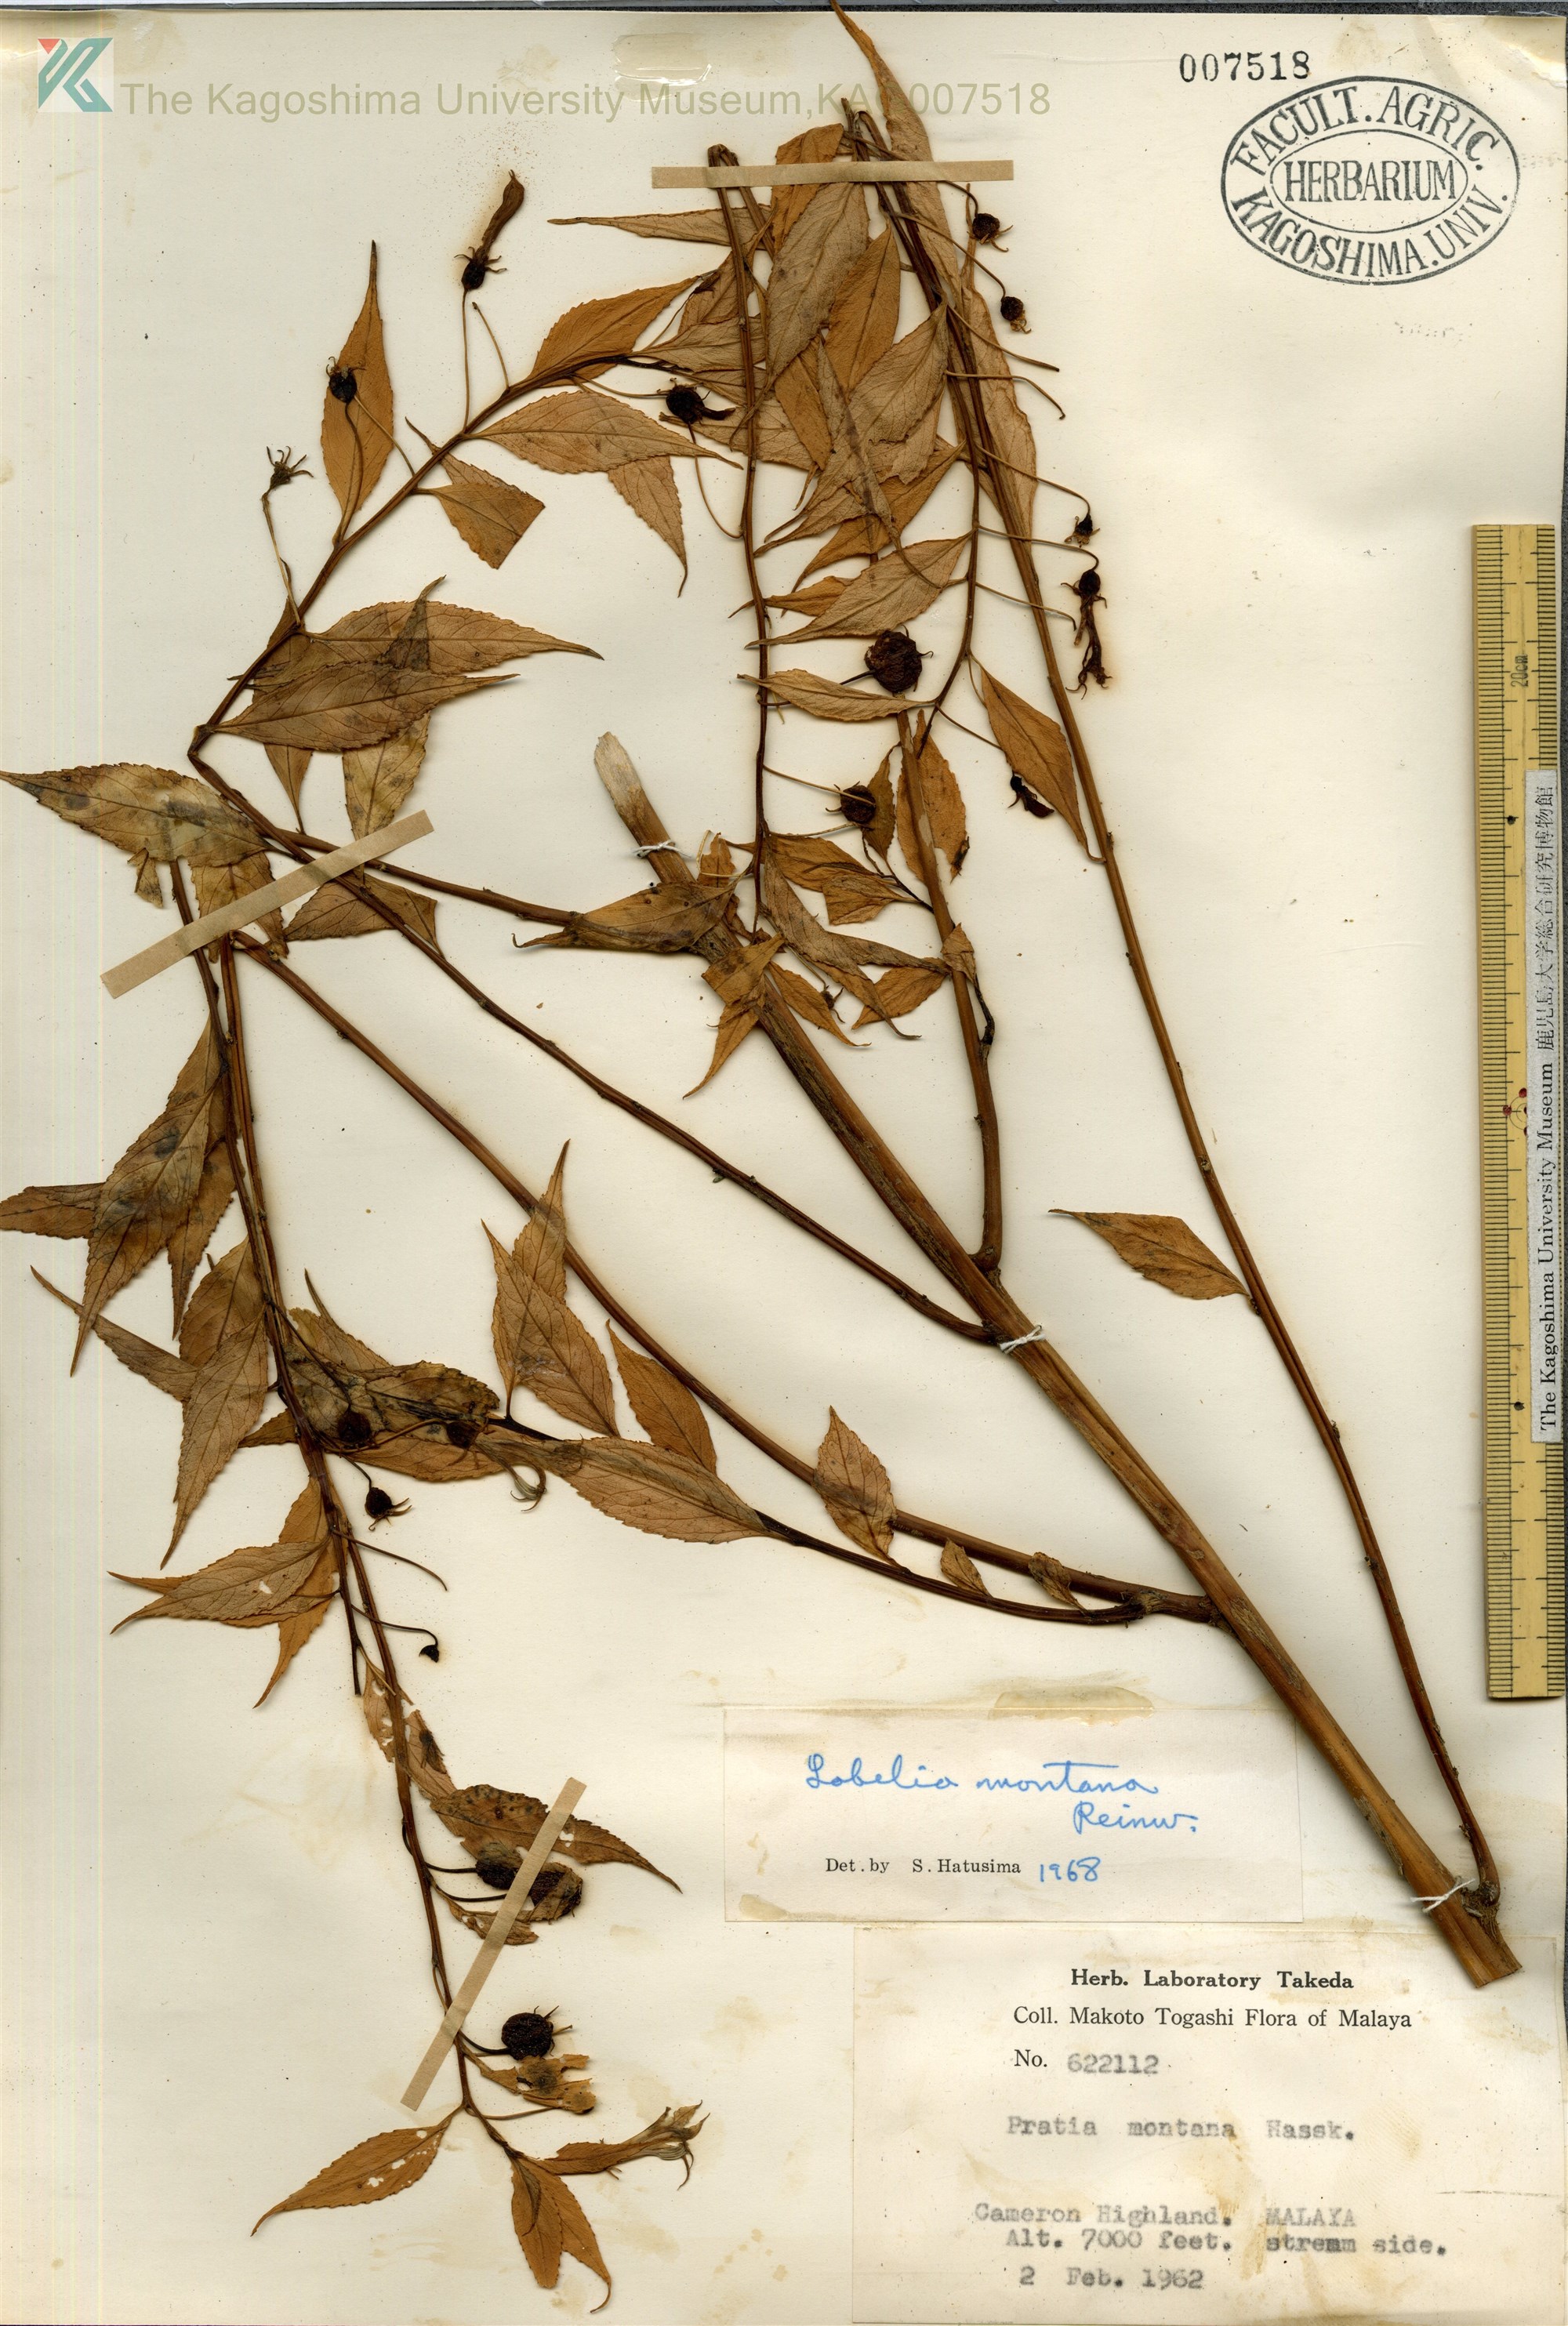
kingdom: Plantae
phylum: Tracheophyta
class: Magnoliopsida
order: Asterales
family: Campanulaceae
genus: Lobelia
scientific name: Lobelia montana
